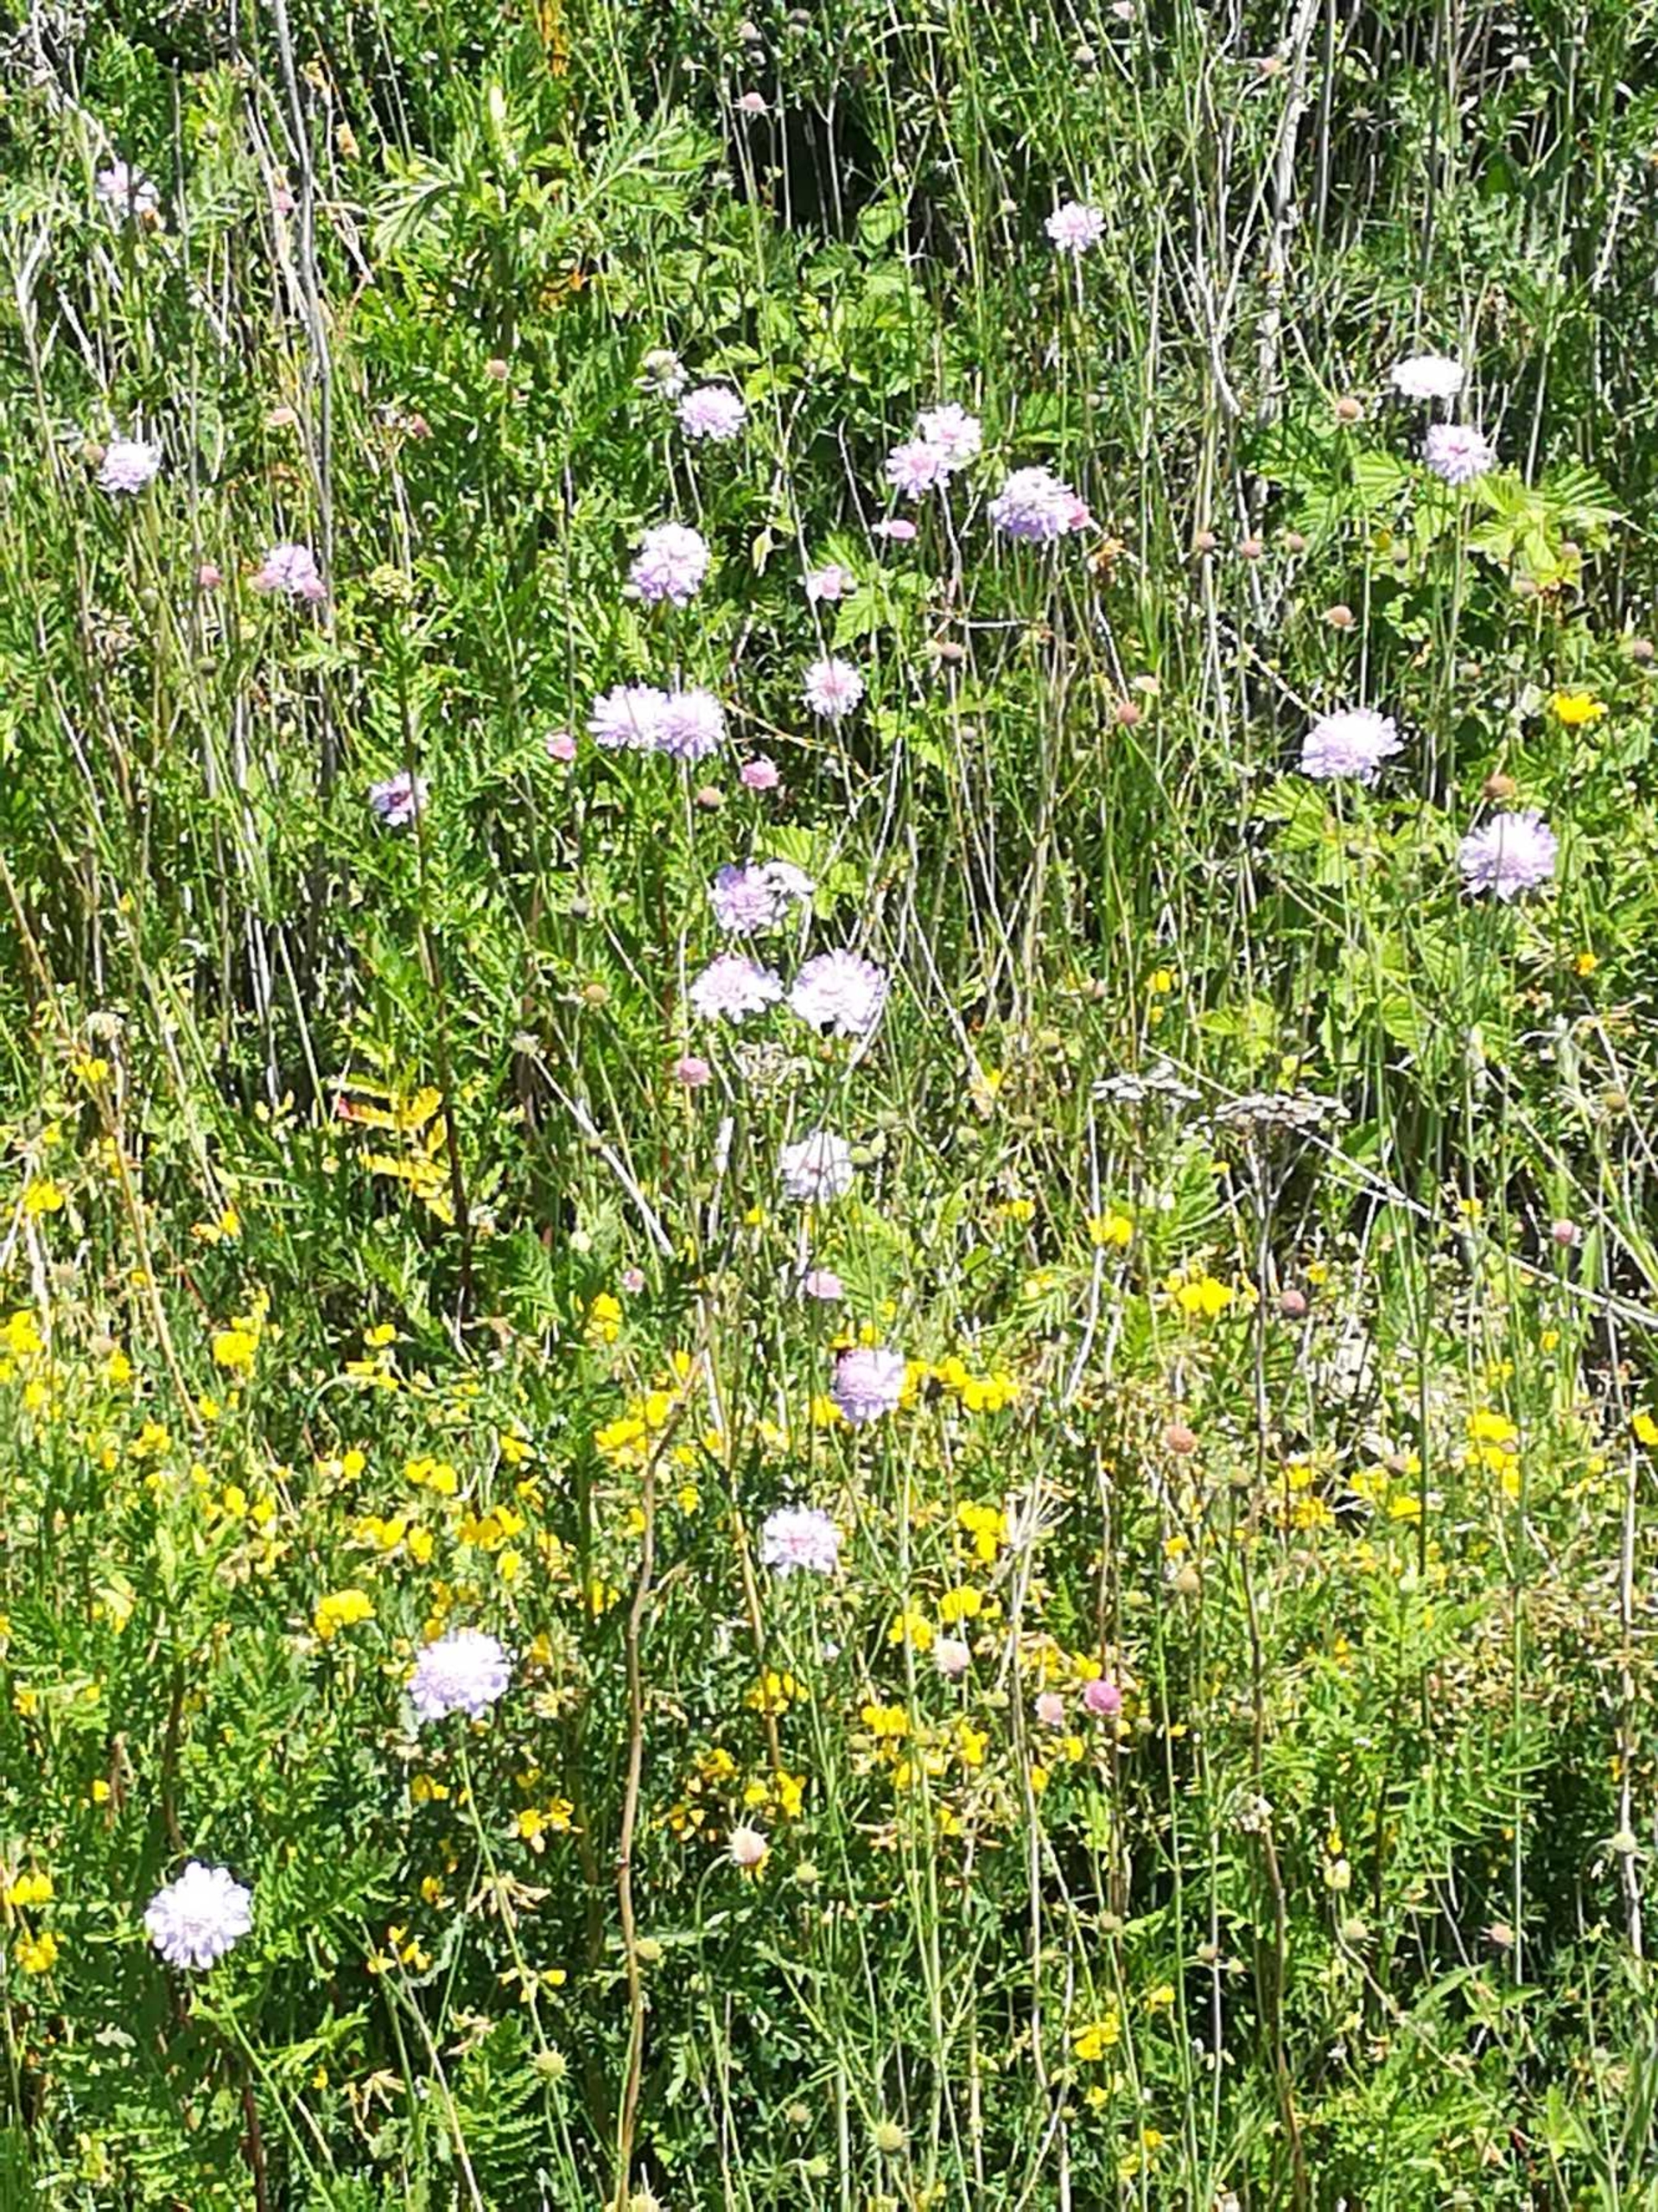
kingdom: Plantae
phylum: Tracheophyta
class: Magnoliopsida
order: Dipsacales
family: Caprifoliaceae
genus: Scabiosa
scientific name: Scabiosa columbaria
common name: Due-skabiose
